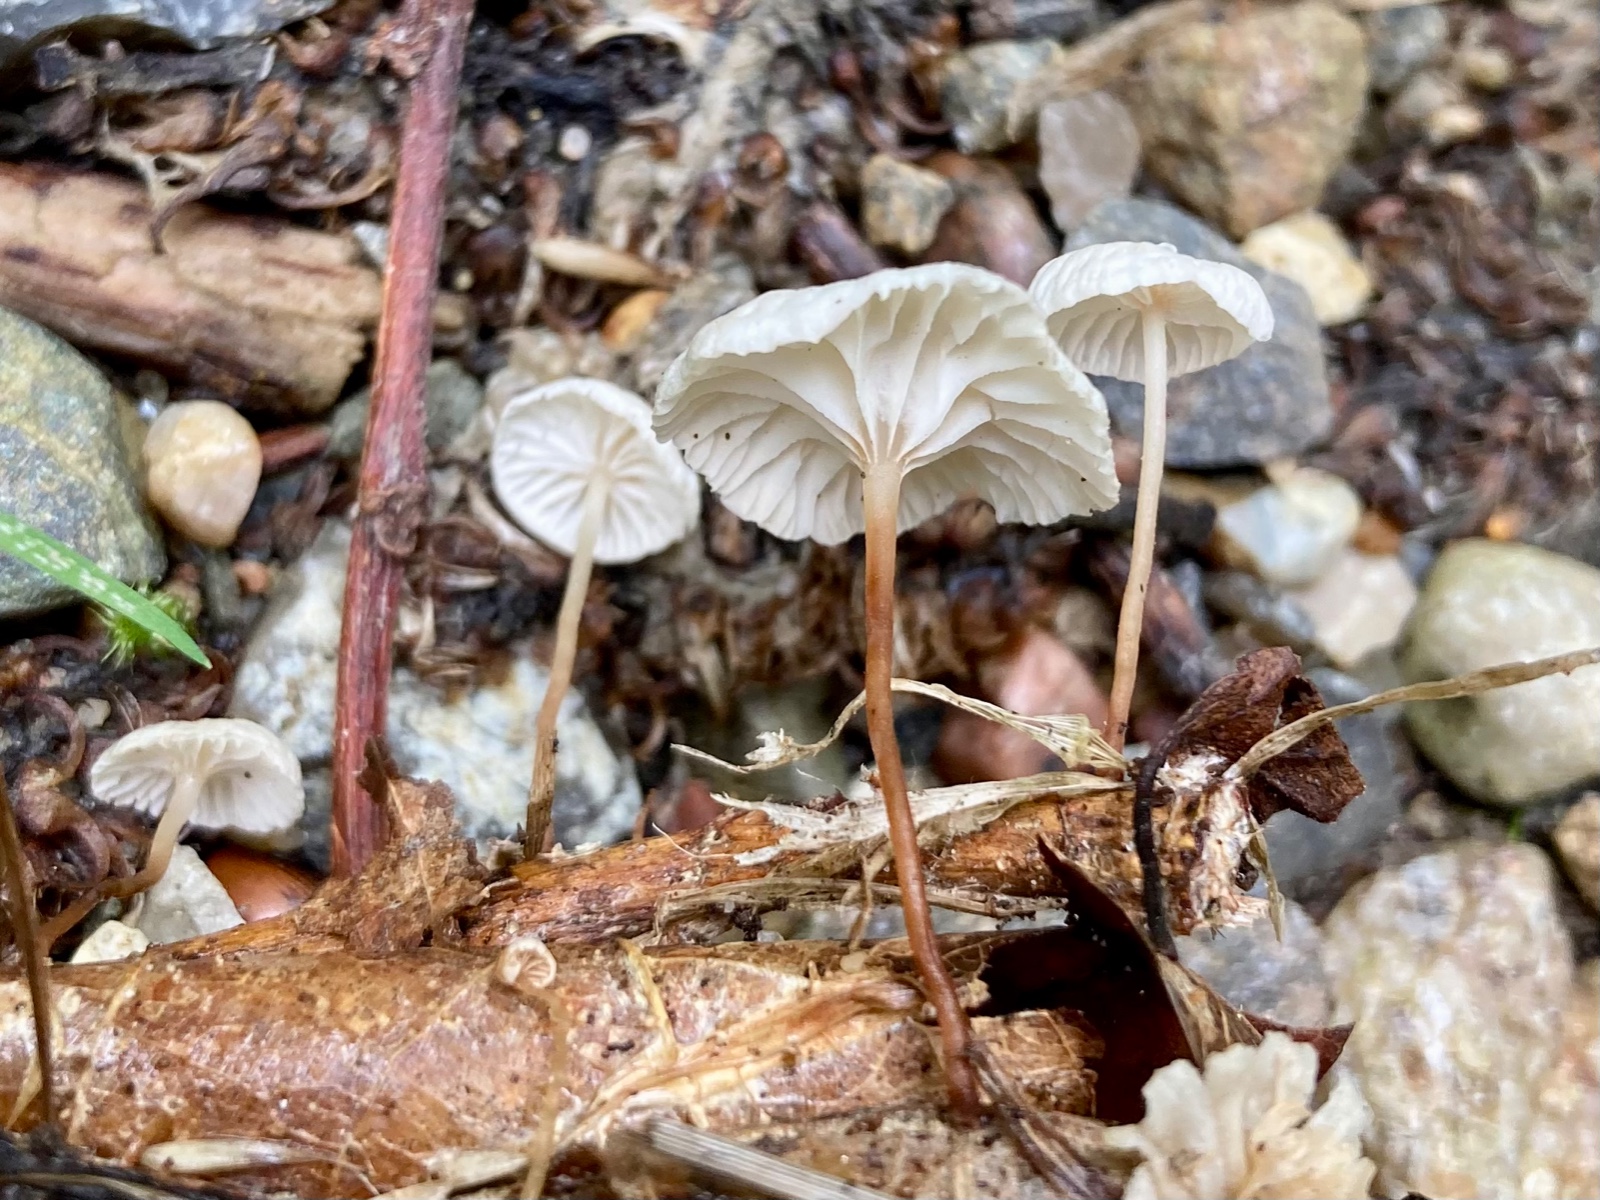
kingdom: Fungi
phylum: Basidiomycota
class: Agaricomycetes
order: Agaricales
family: Omphalotaceae
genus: Collybiopsis
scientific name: Collybiopsis vaillantii
